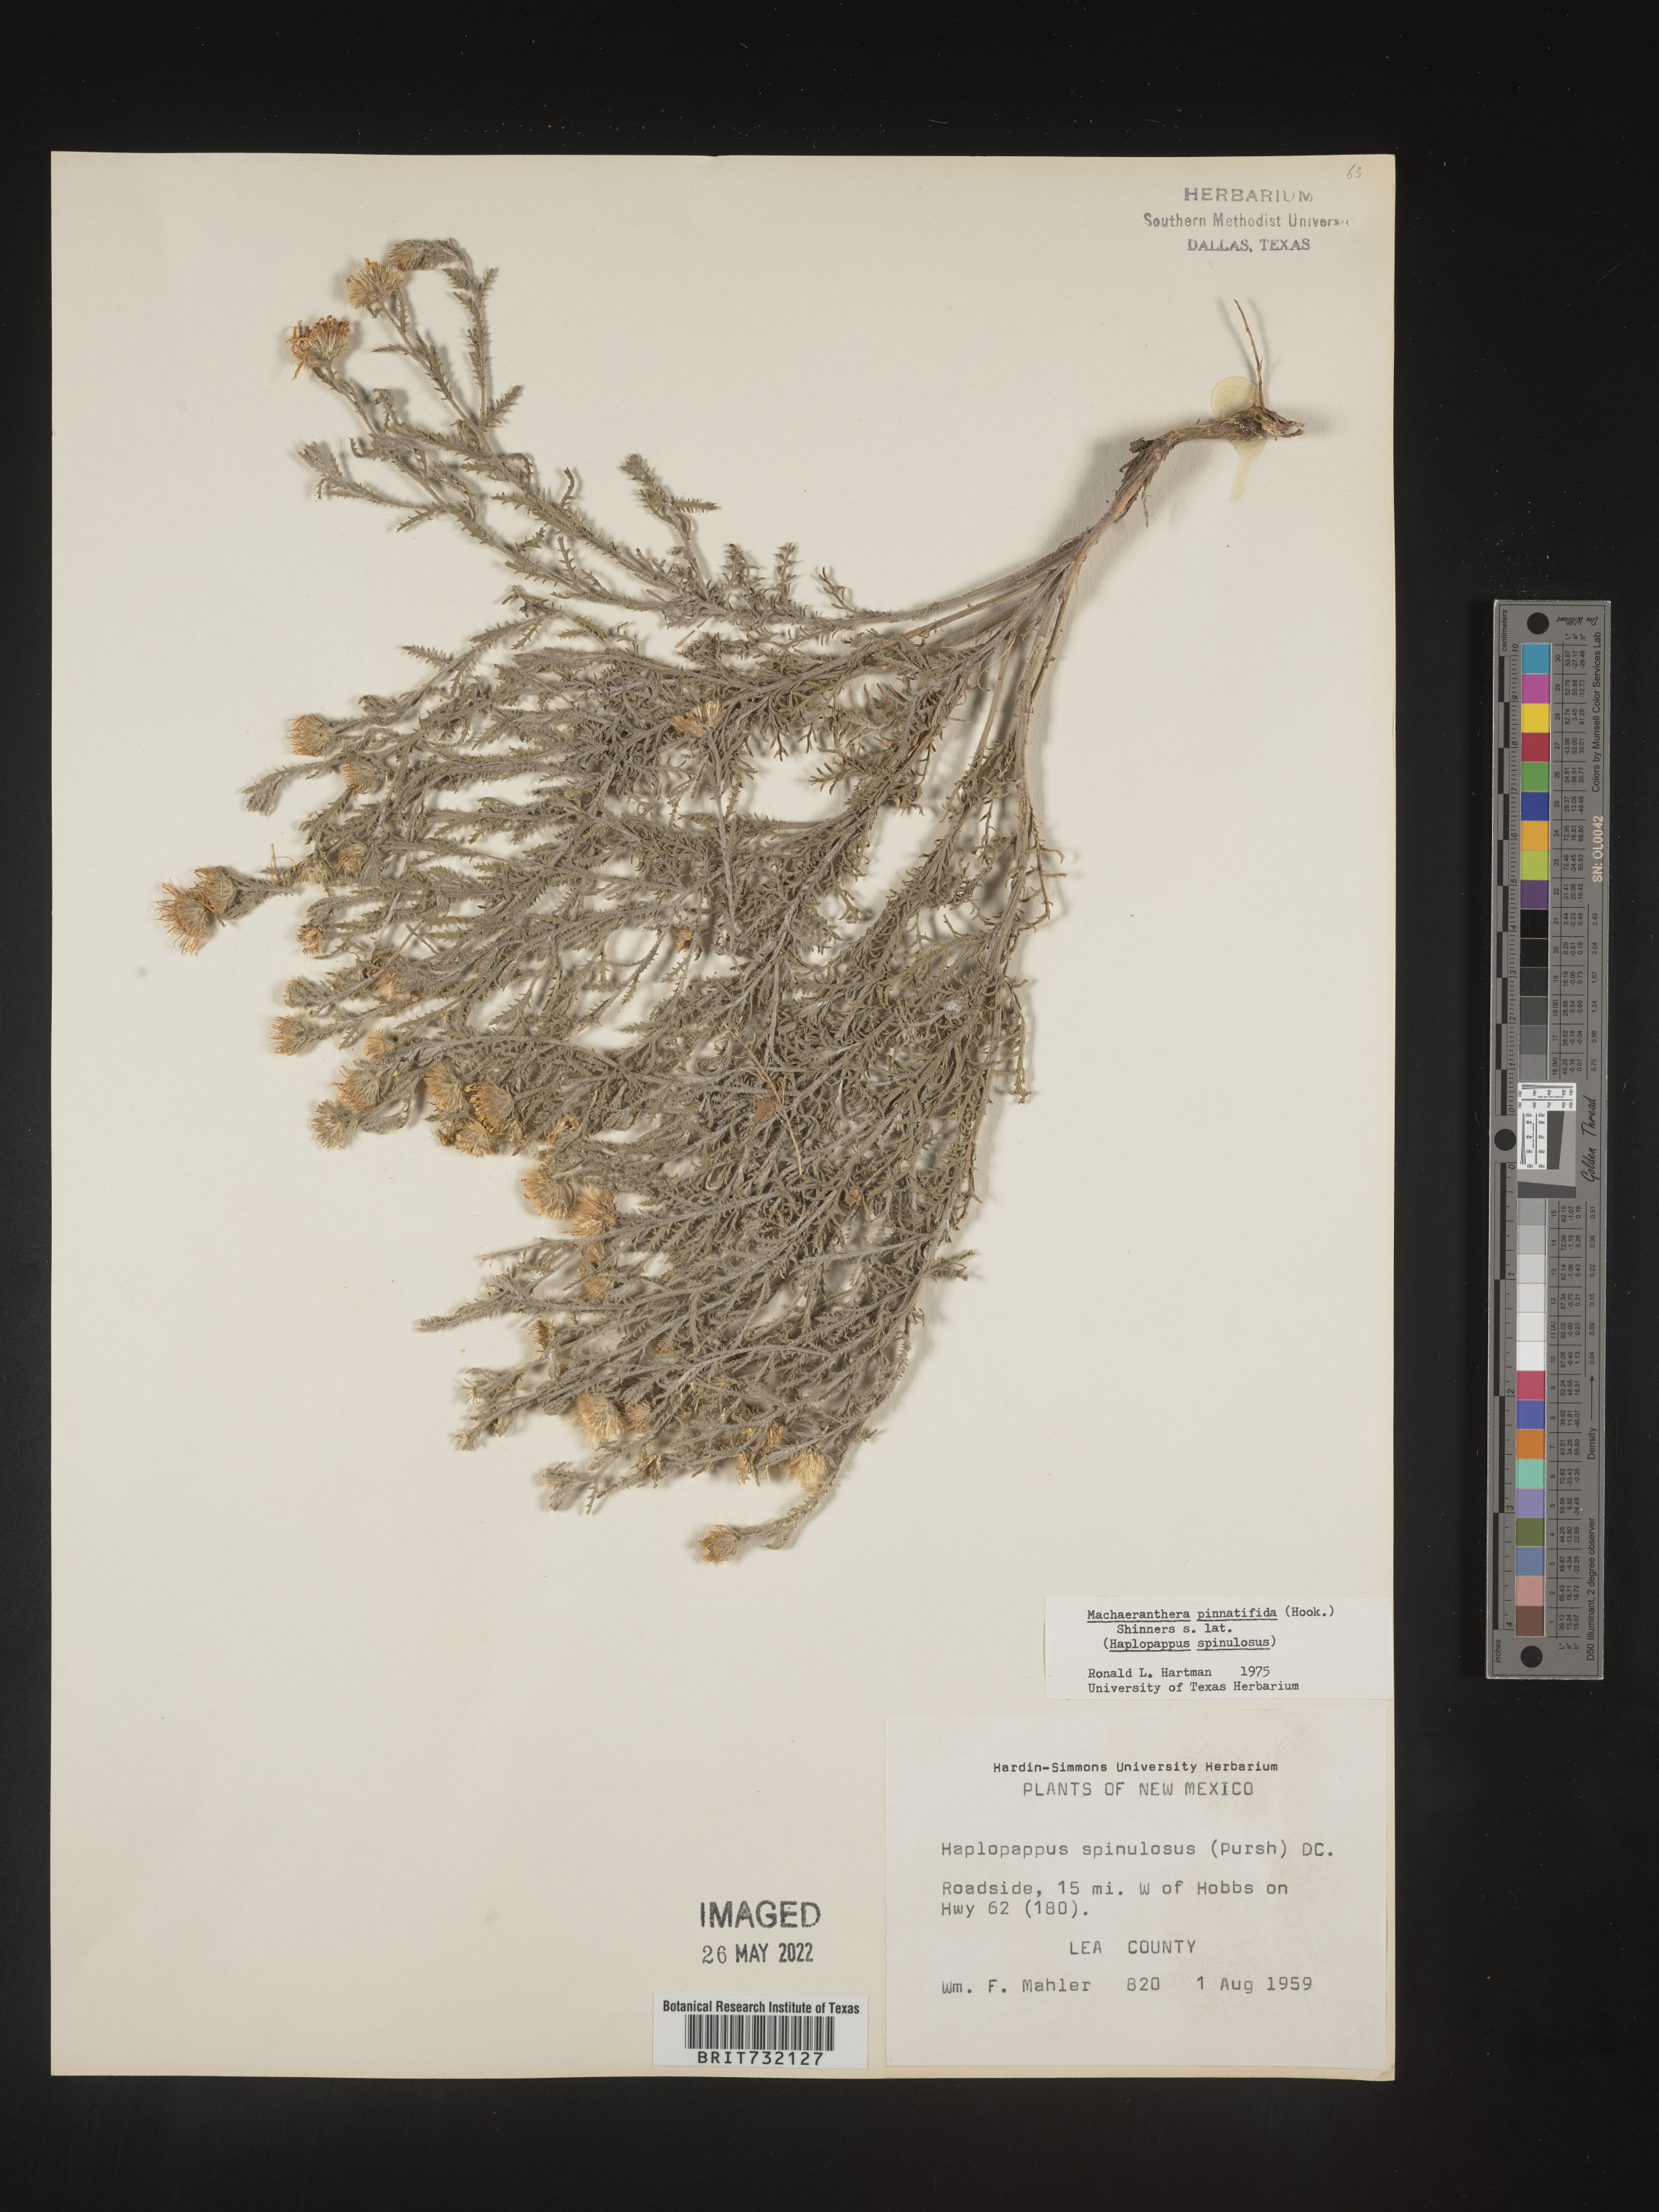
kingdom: Plantae
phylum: Tracheophyta
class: Magnoliopsida
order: Asterales
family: Asteraceae
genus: Xanthisma
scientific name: Xanthisma spinulosum
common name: Spiny goldenweed
